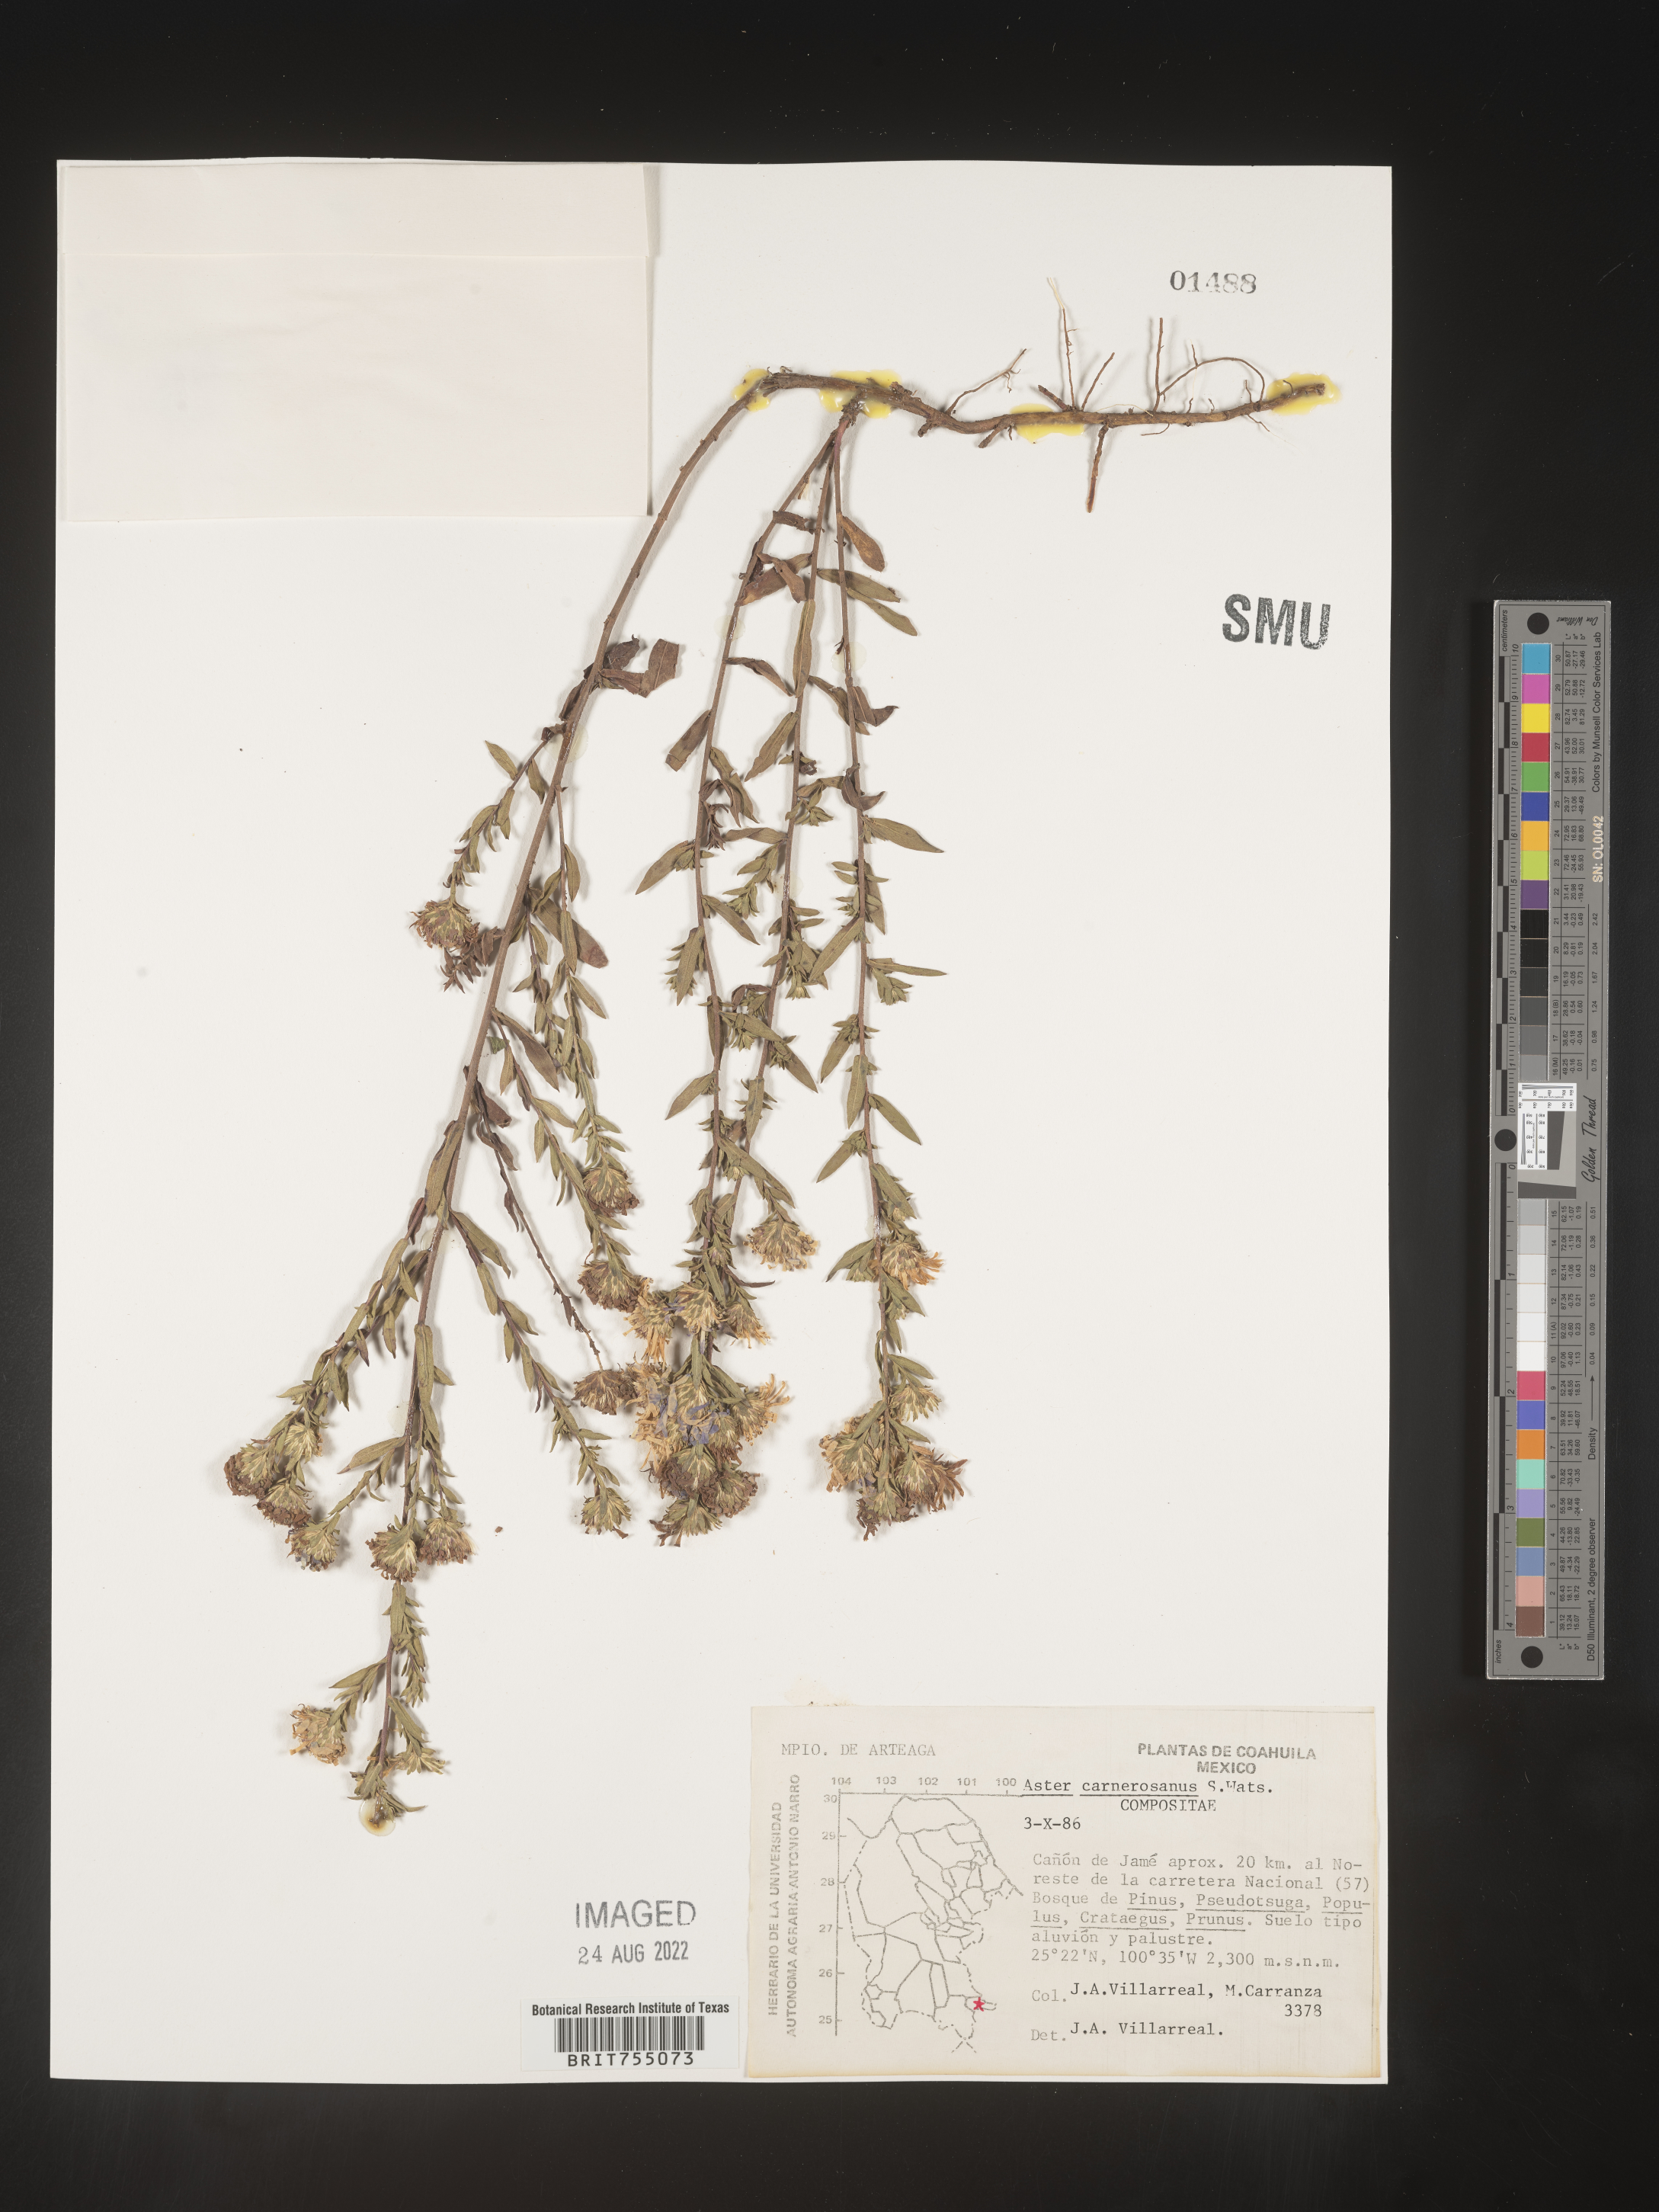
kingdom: Plantae
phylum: Tracheophyta
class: Magnoliopsida
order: Asterales
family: Asteraceae
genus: Symphyotrichum
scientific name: Symphyotrichum carnerosanum
